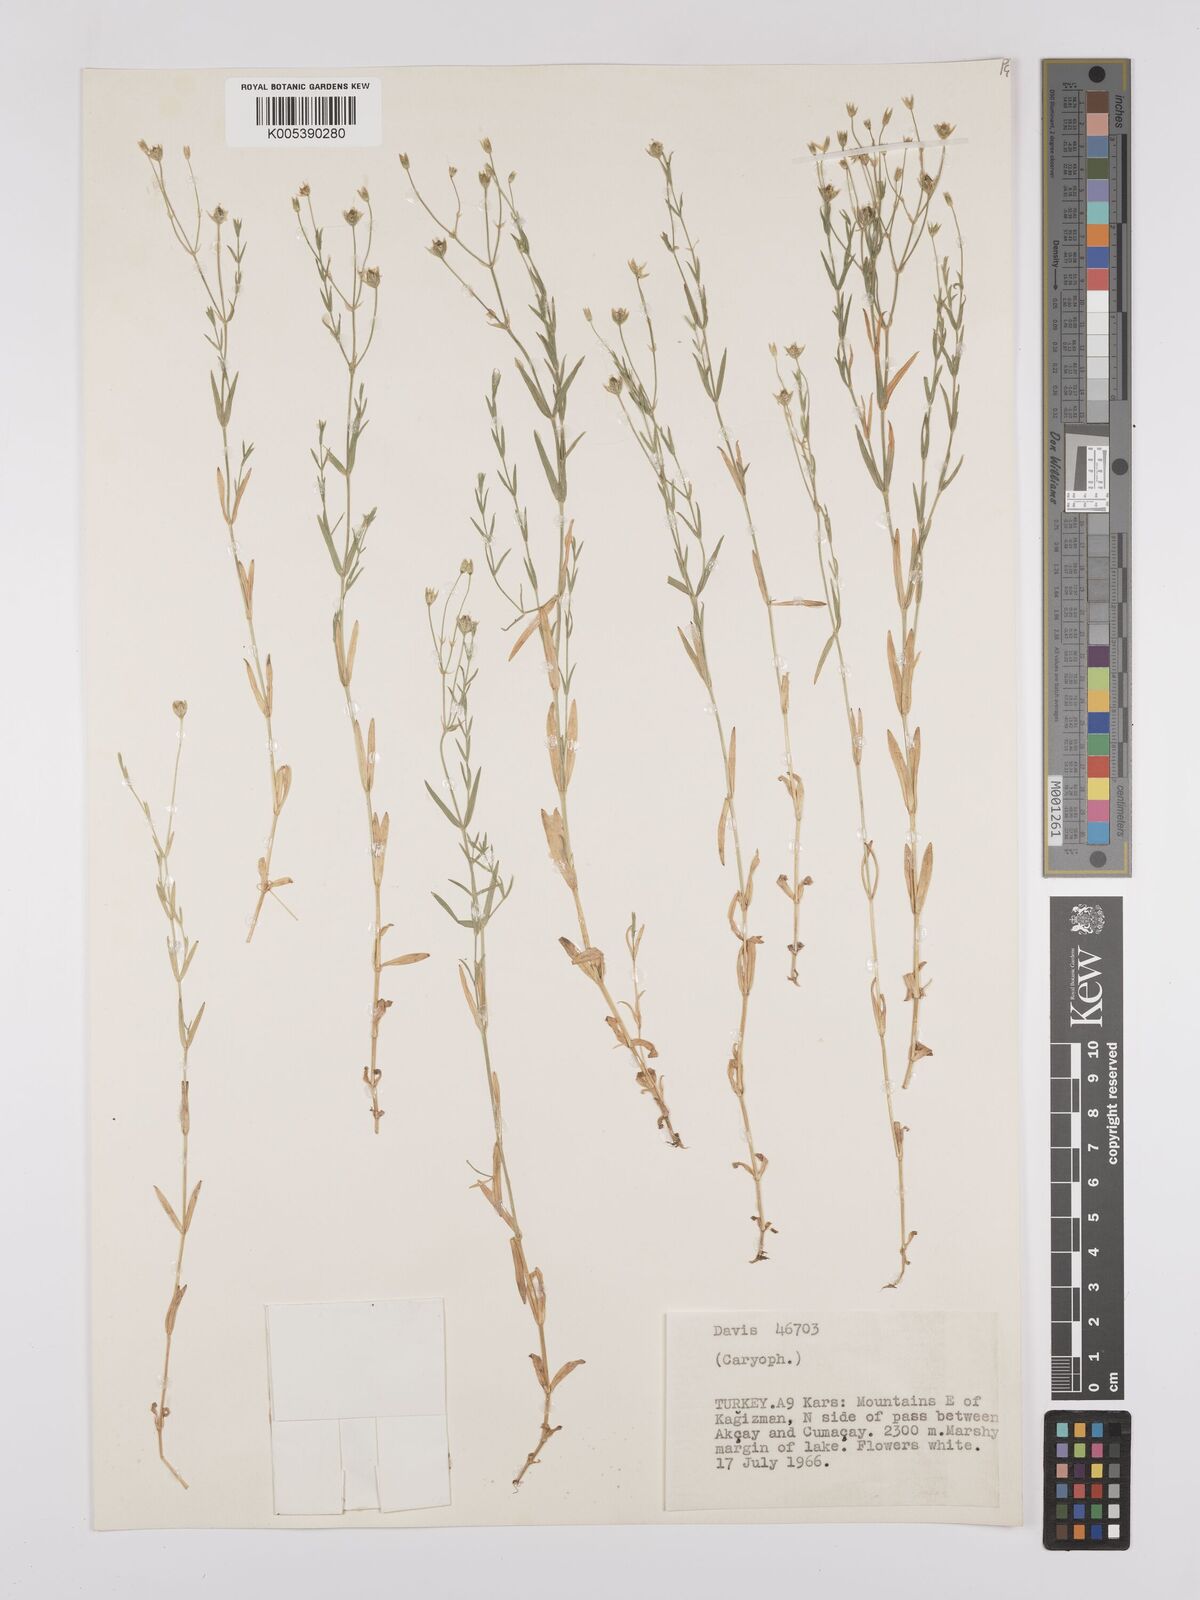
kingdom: Plantae
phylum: Tracheophyta
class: Magnoliopsida
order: Caryophyllales
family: Caryophyllaceae
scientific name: Caryophyllaceae
